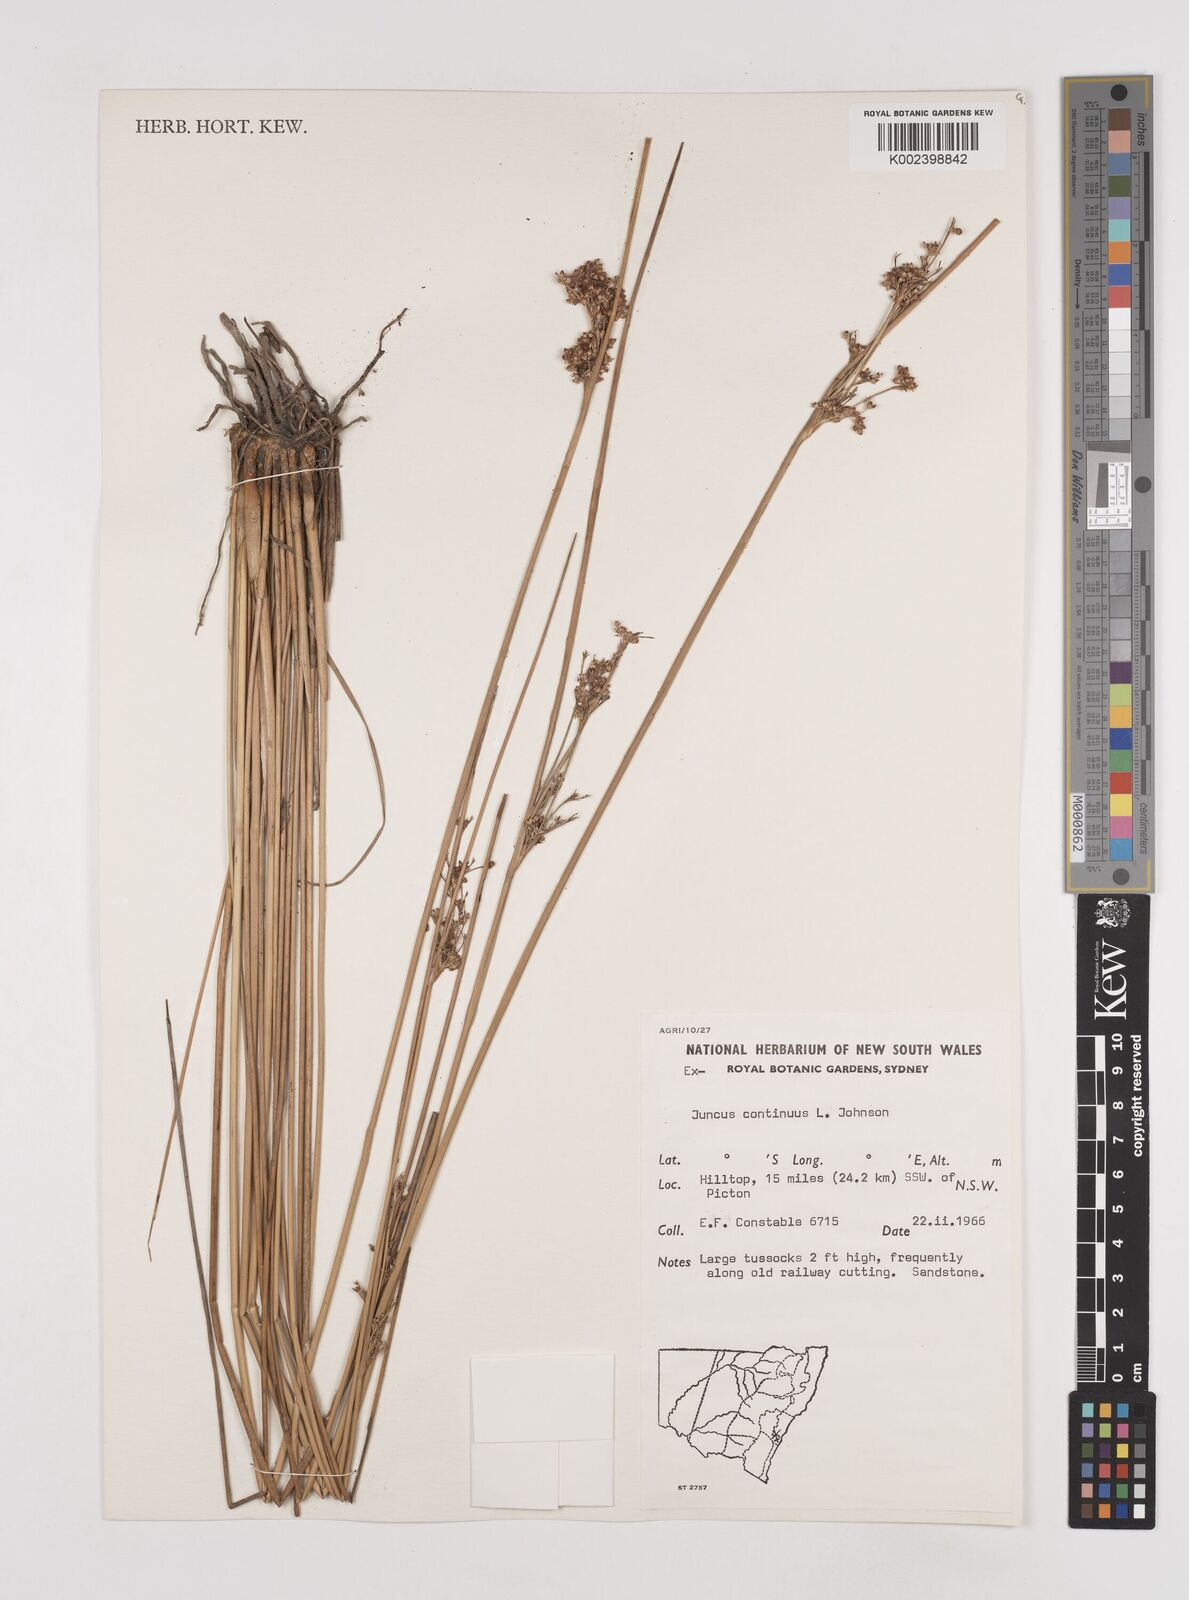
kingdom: Plantae
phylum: Tracheophyta
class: Liliopsida
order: Poales
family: Juncaceae
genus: Juncus
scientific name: Juncus continuus
